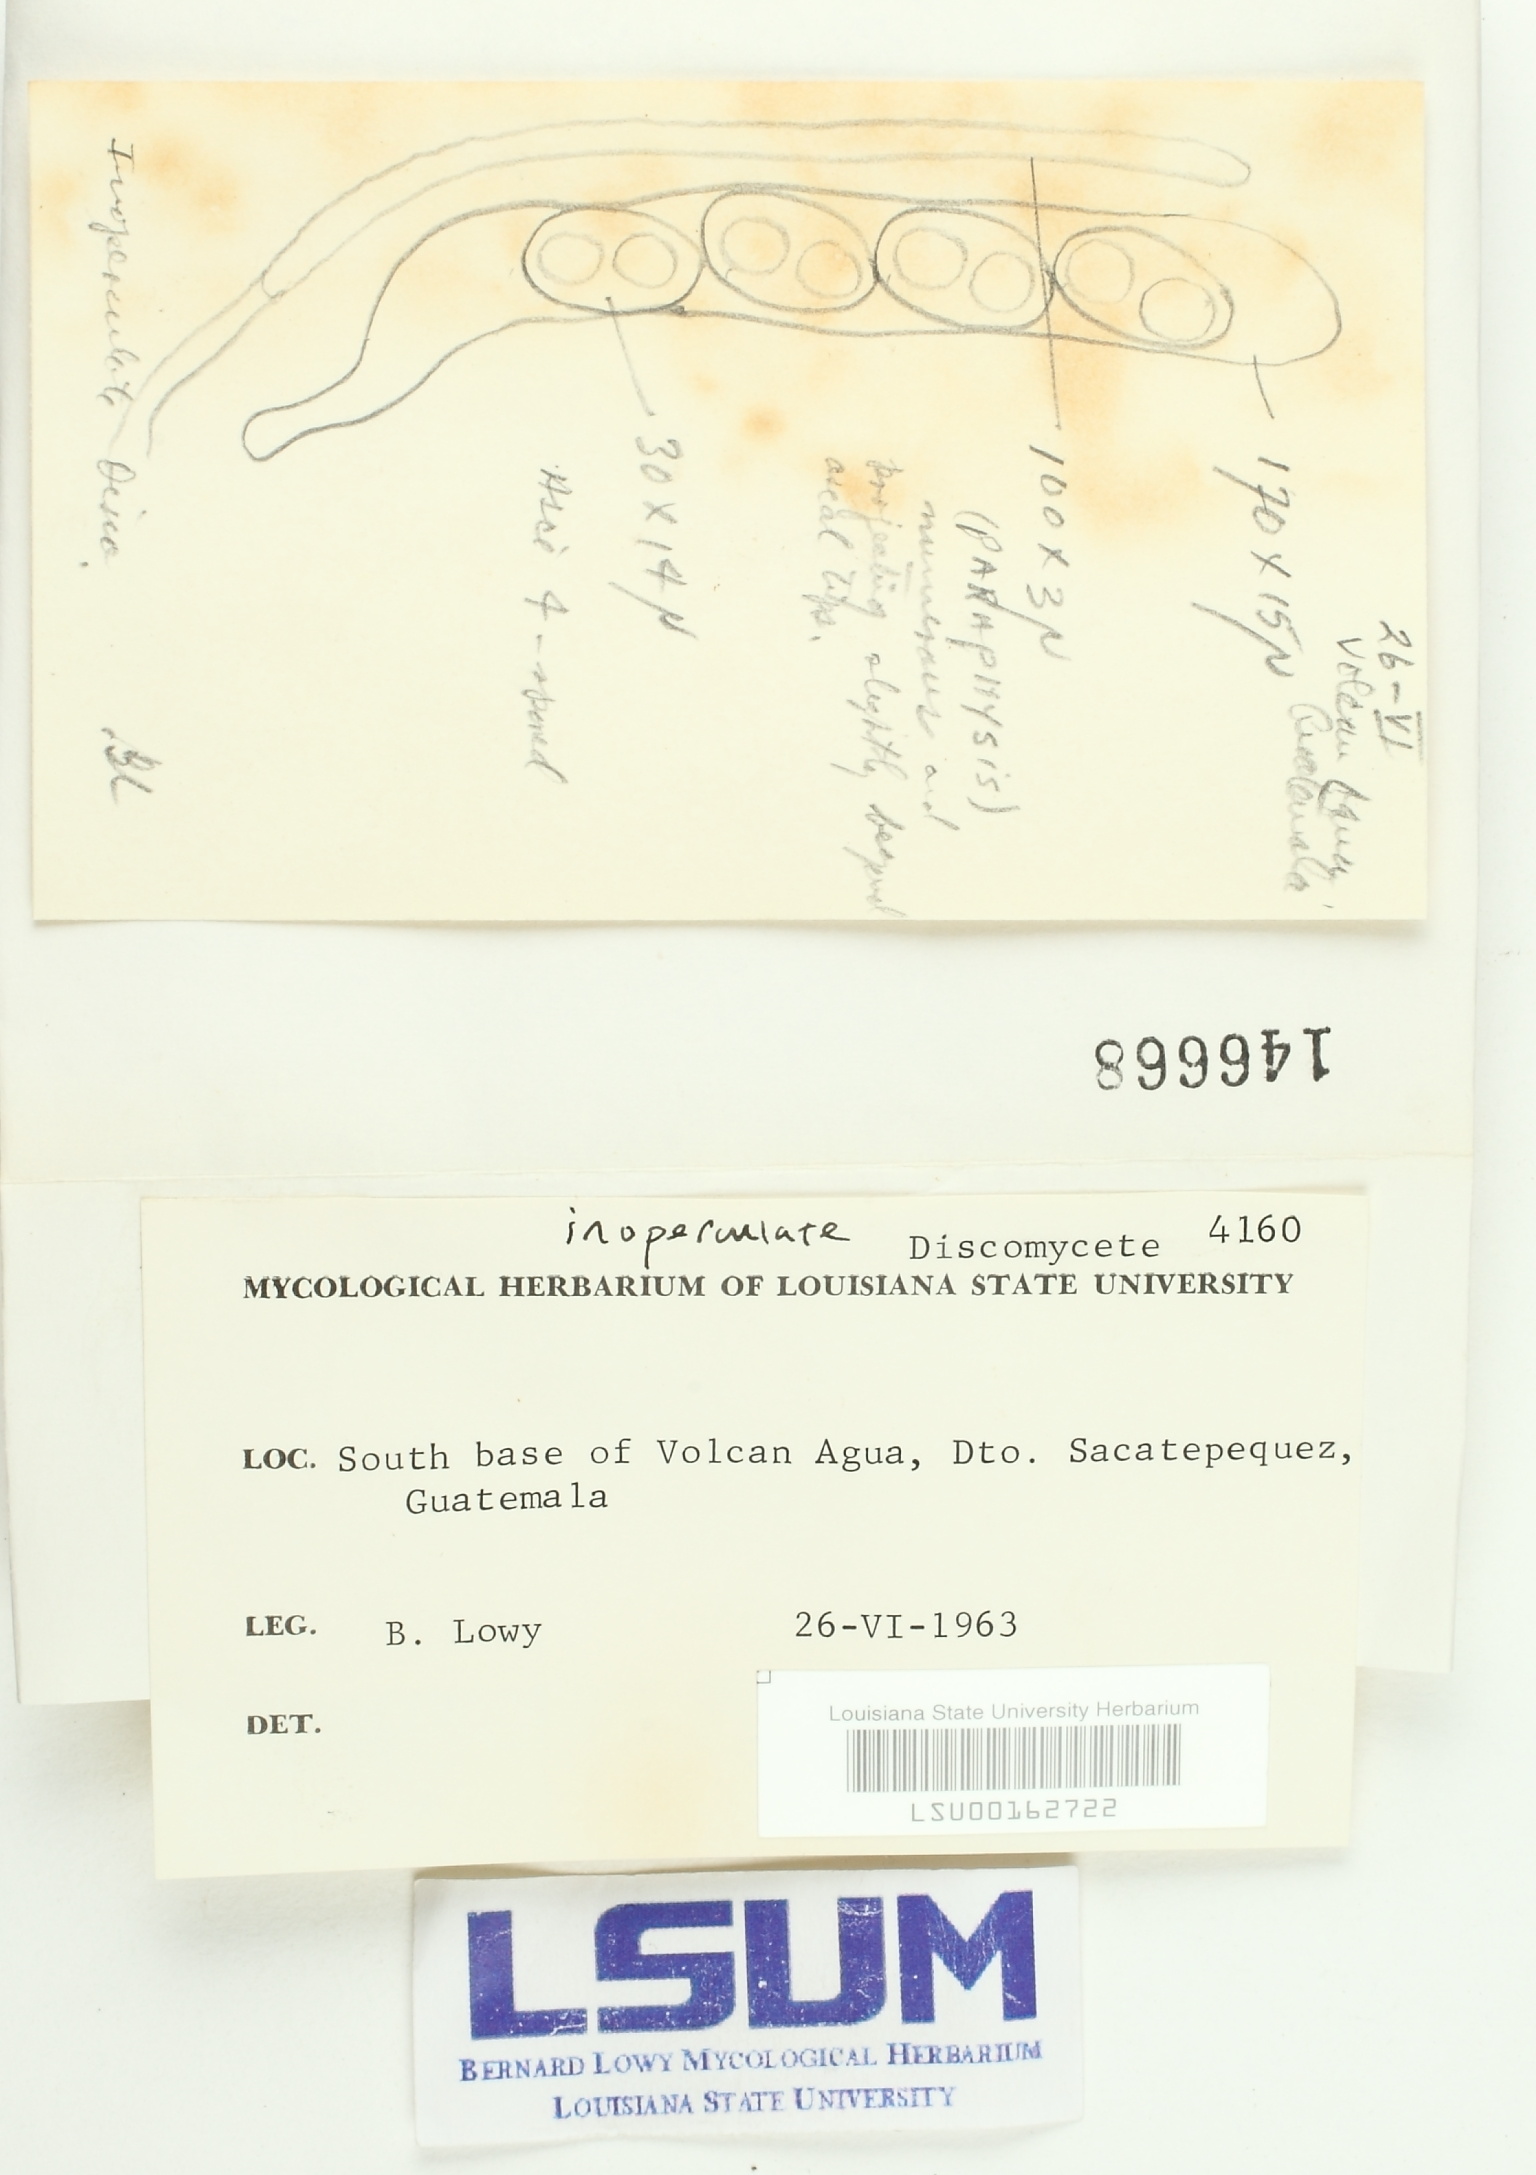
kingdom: Fungi
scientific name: Fungi
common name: Fungi
